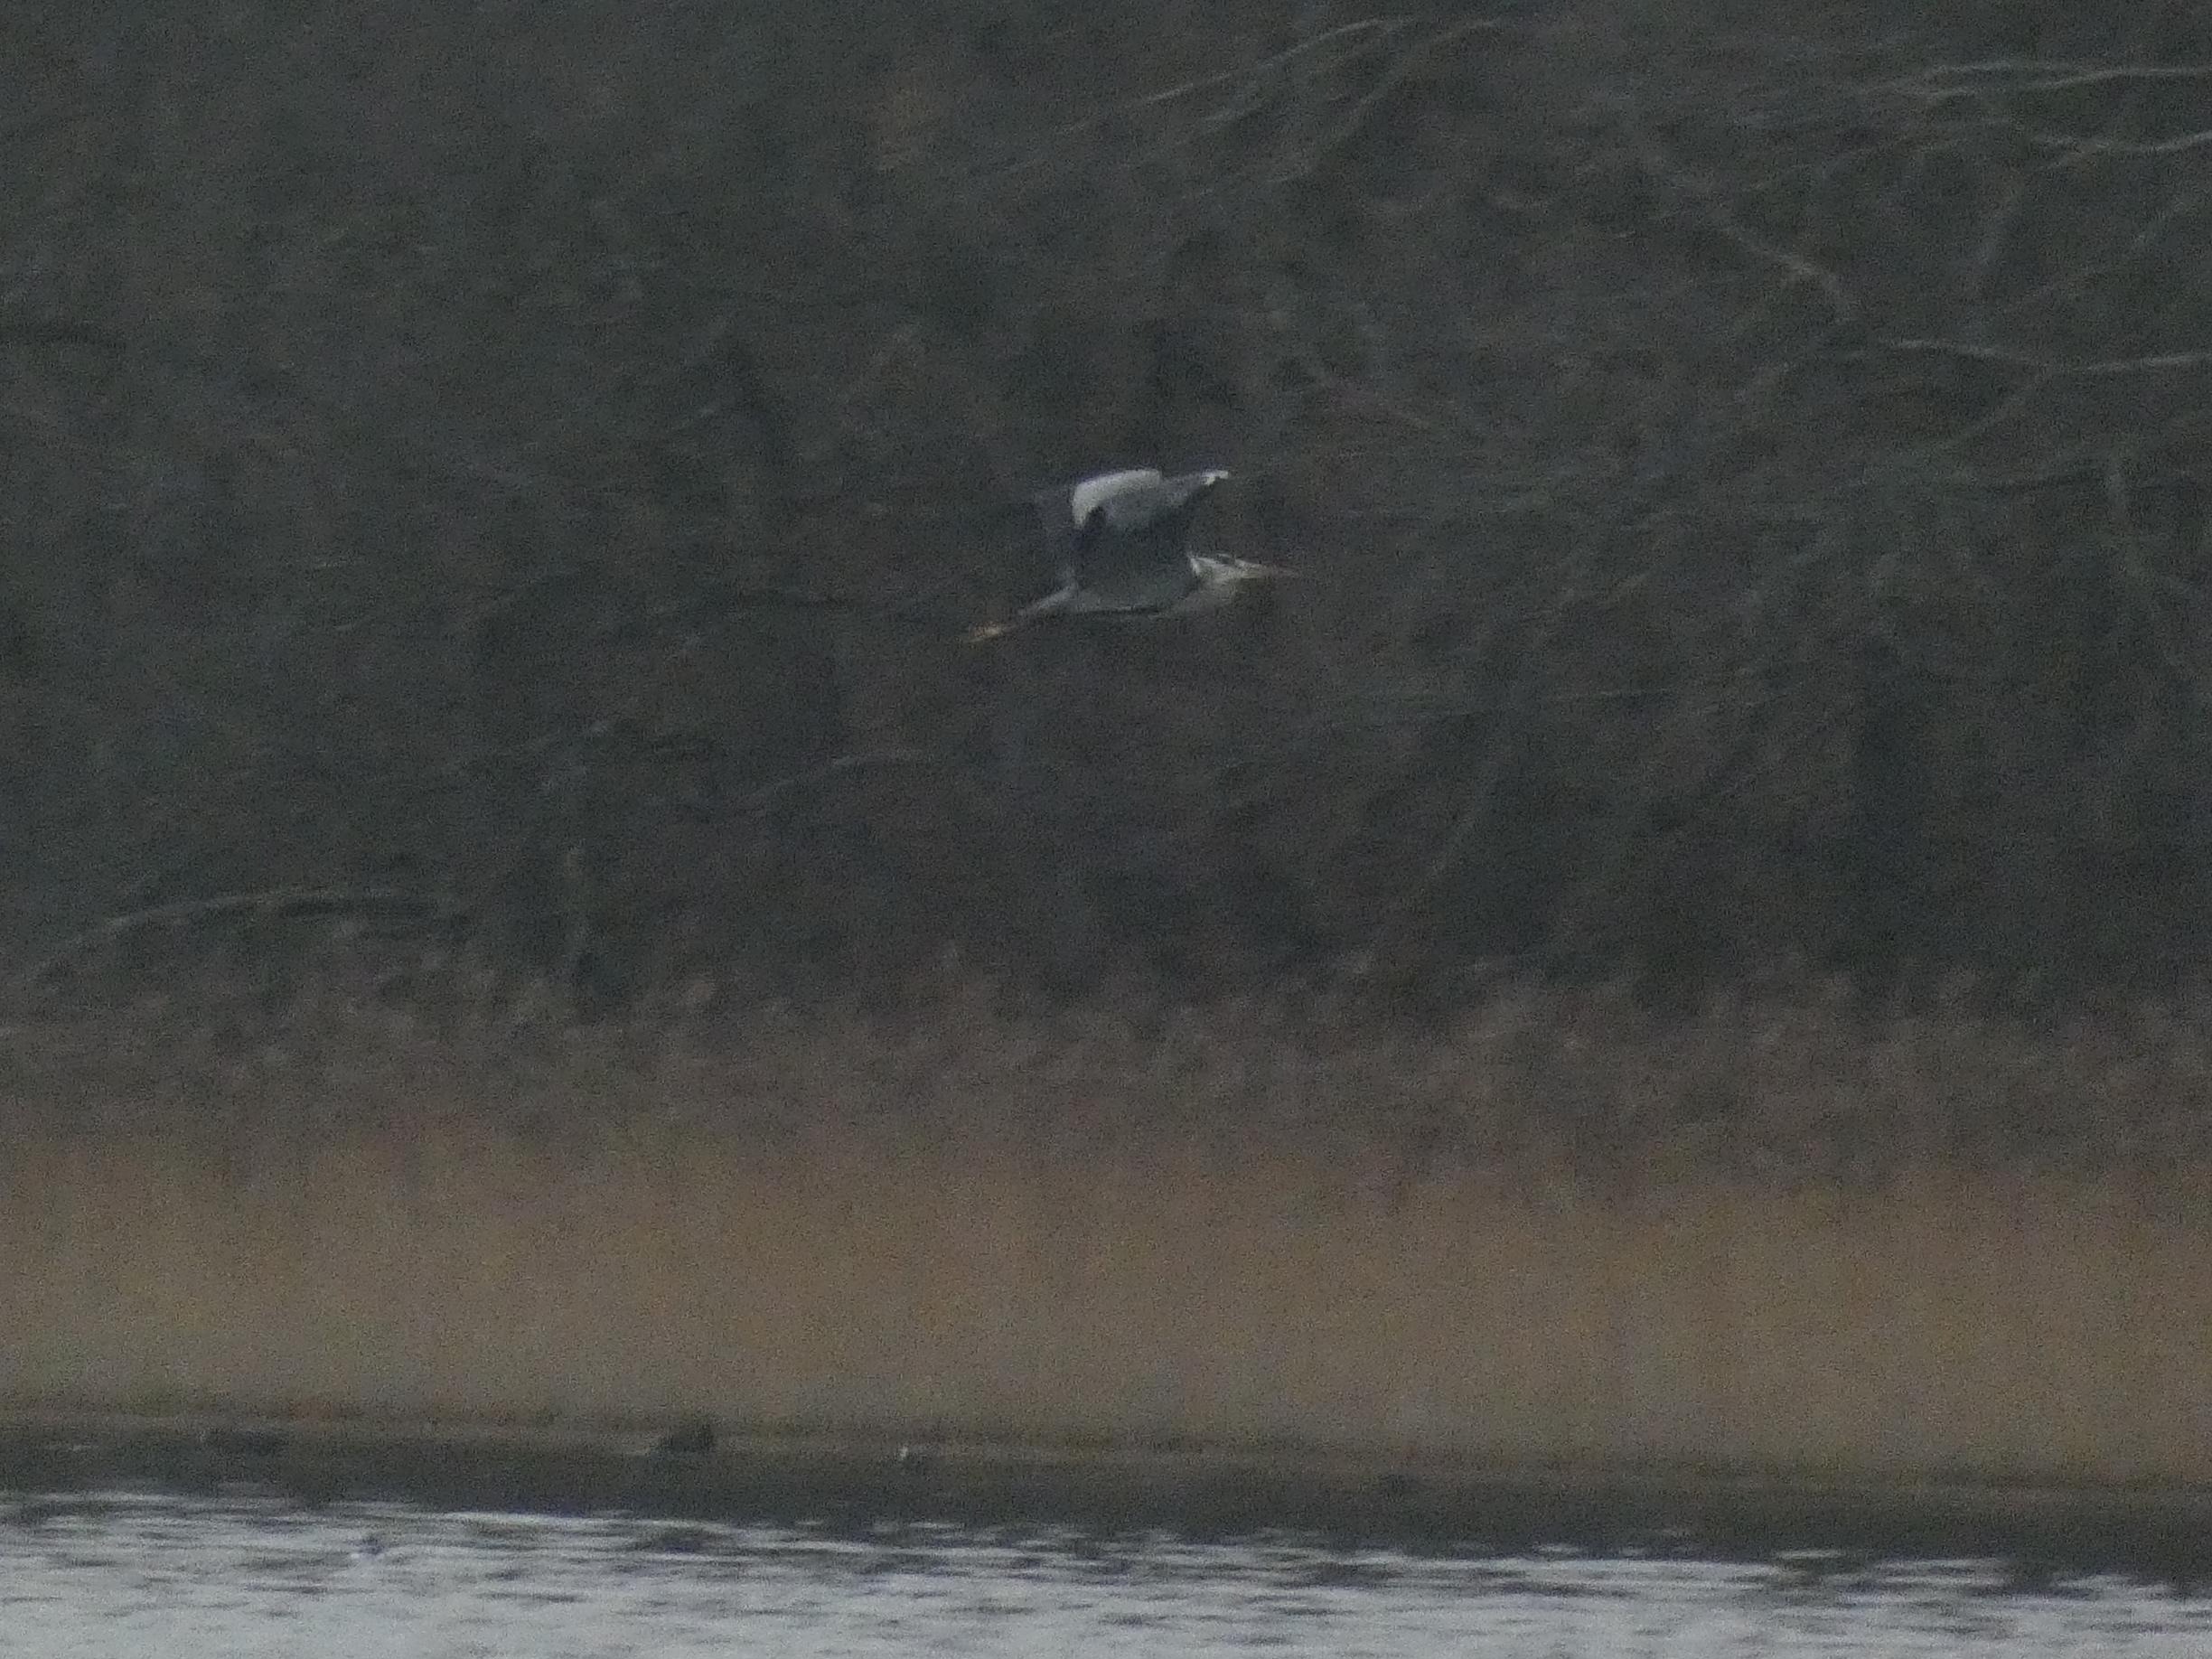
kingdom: Animalia
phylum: Chordata
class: Aves
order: Pelecaniformes
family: Ardeidae
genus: Ardea
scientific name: Ardea cinerea
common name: Fiskehejre
